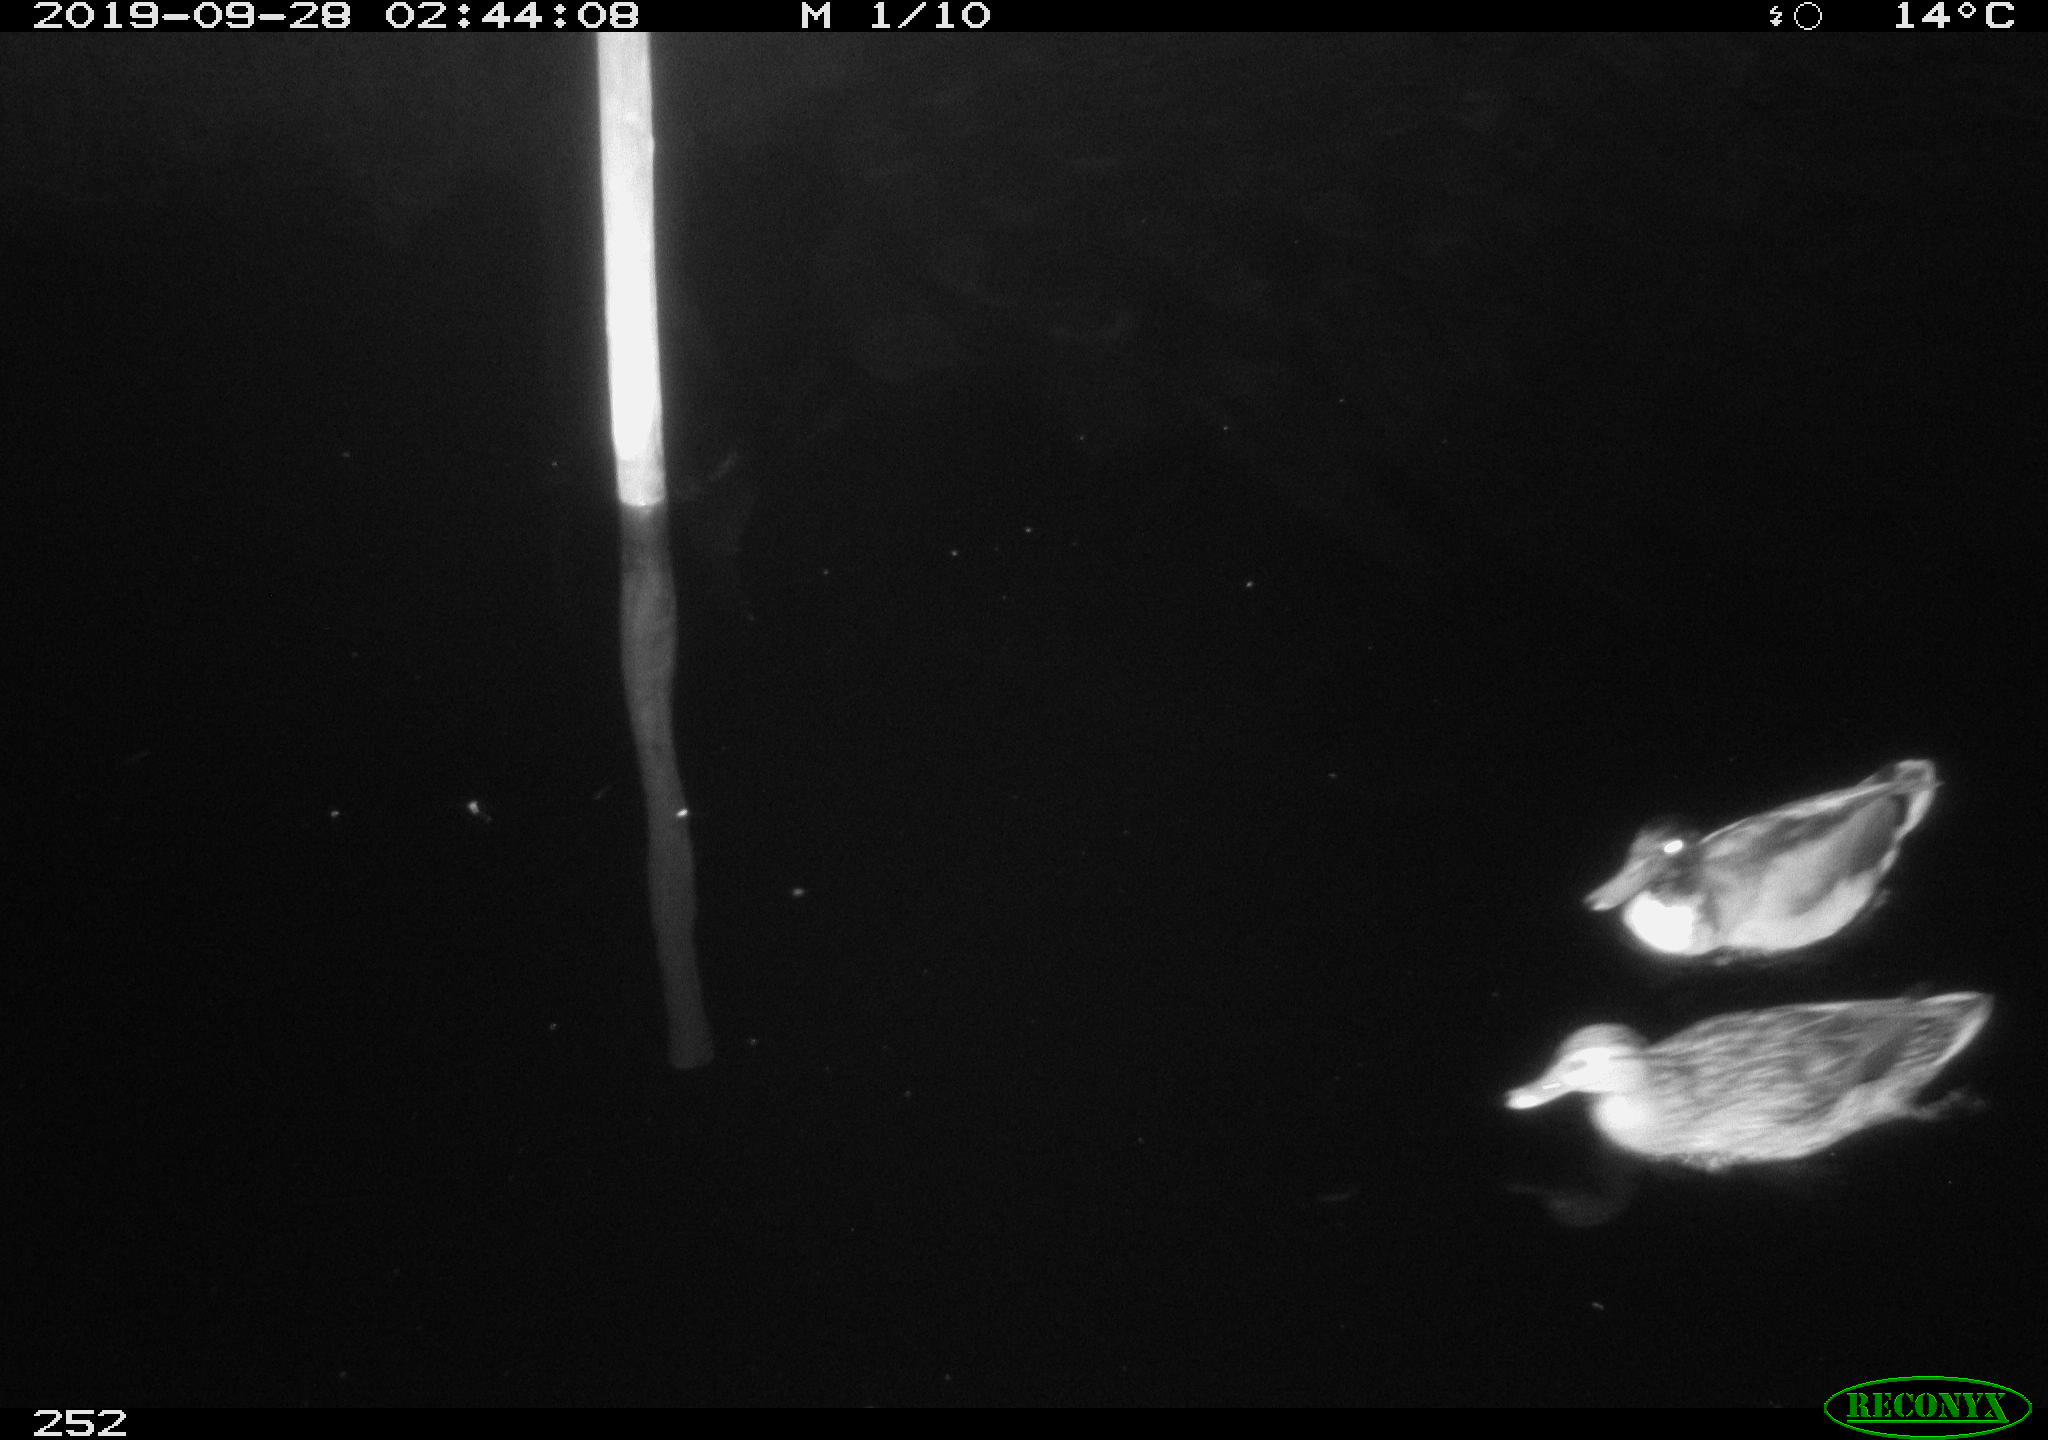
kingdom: Animalia
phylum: Chordata
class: Aves
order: Anseriformes
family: Anatidae
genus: Anas
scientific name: Anas platyrhynchos
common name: Mallard
